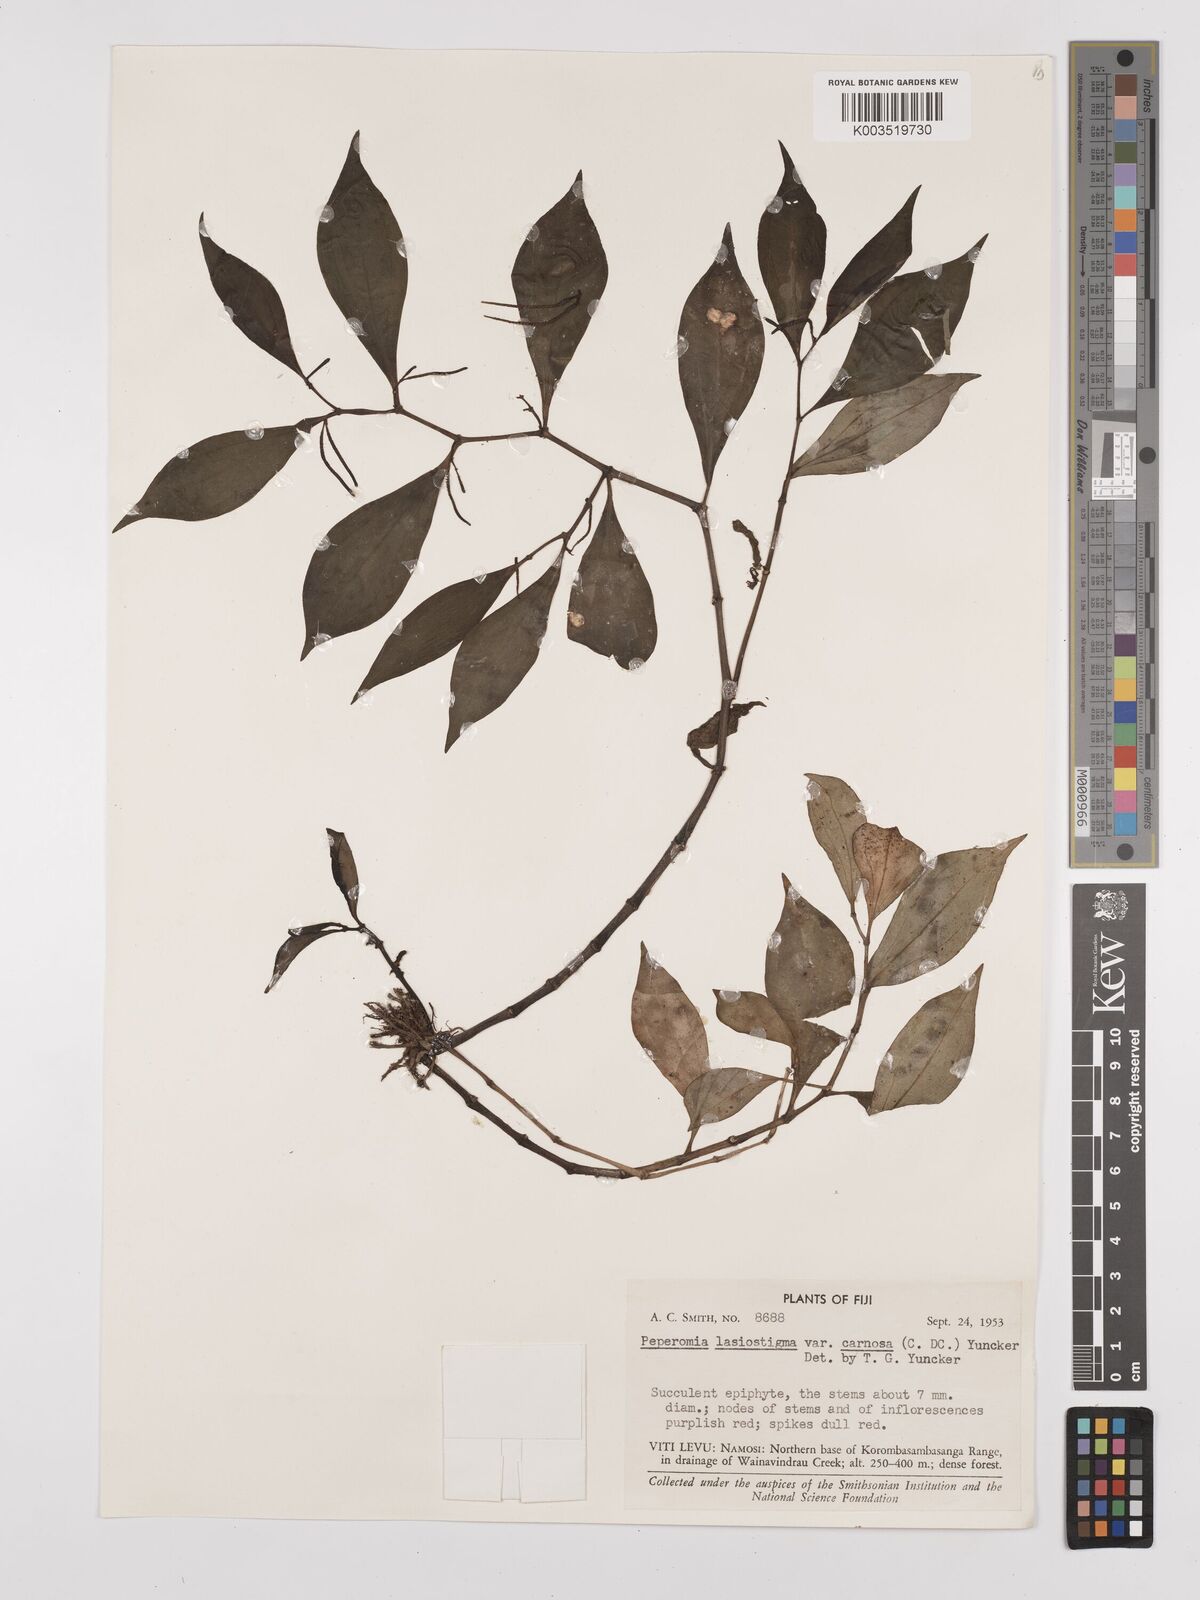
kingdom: Plantae
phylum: Tracheophyta
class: Magnoliopsida
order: Piperales
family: Piperaceae
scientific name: Piperaceae
